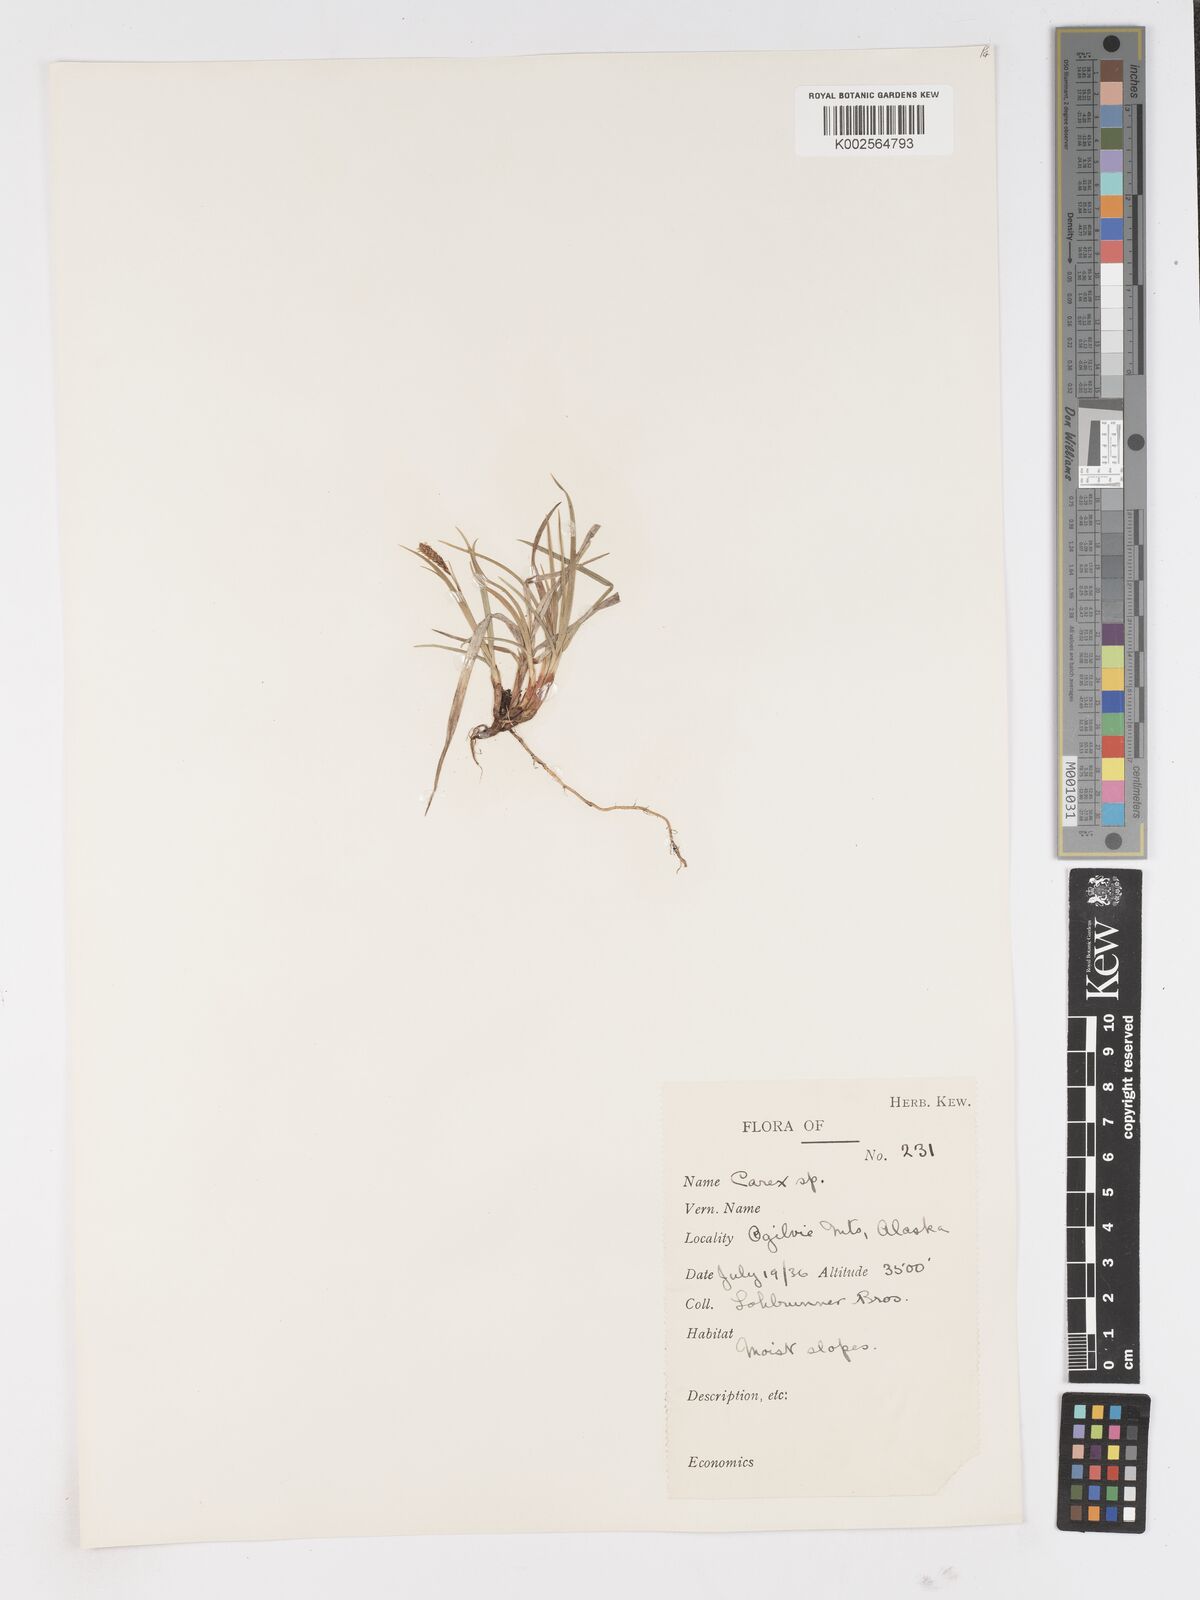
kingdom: Plantae
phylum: Tracheophyta
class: Liliopsida
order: Poales
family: Cyperaceae
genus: Carex
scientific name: Carex
